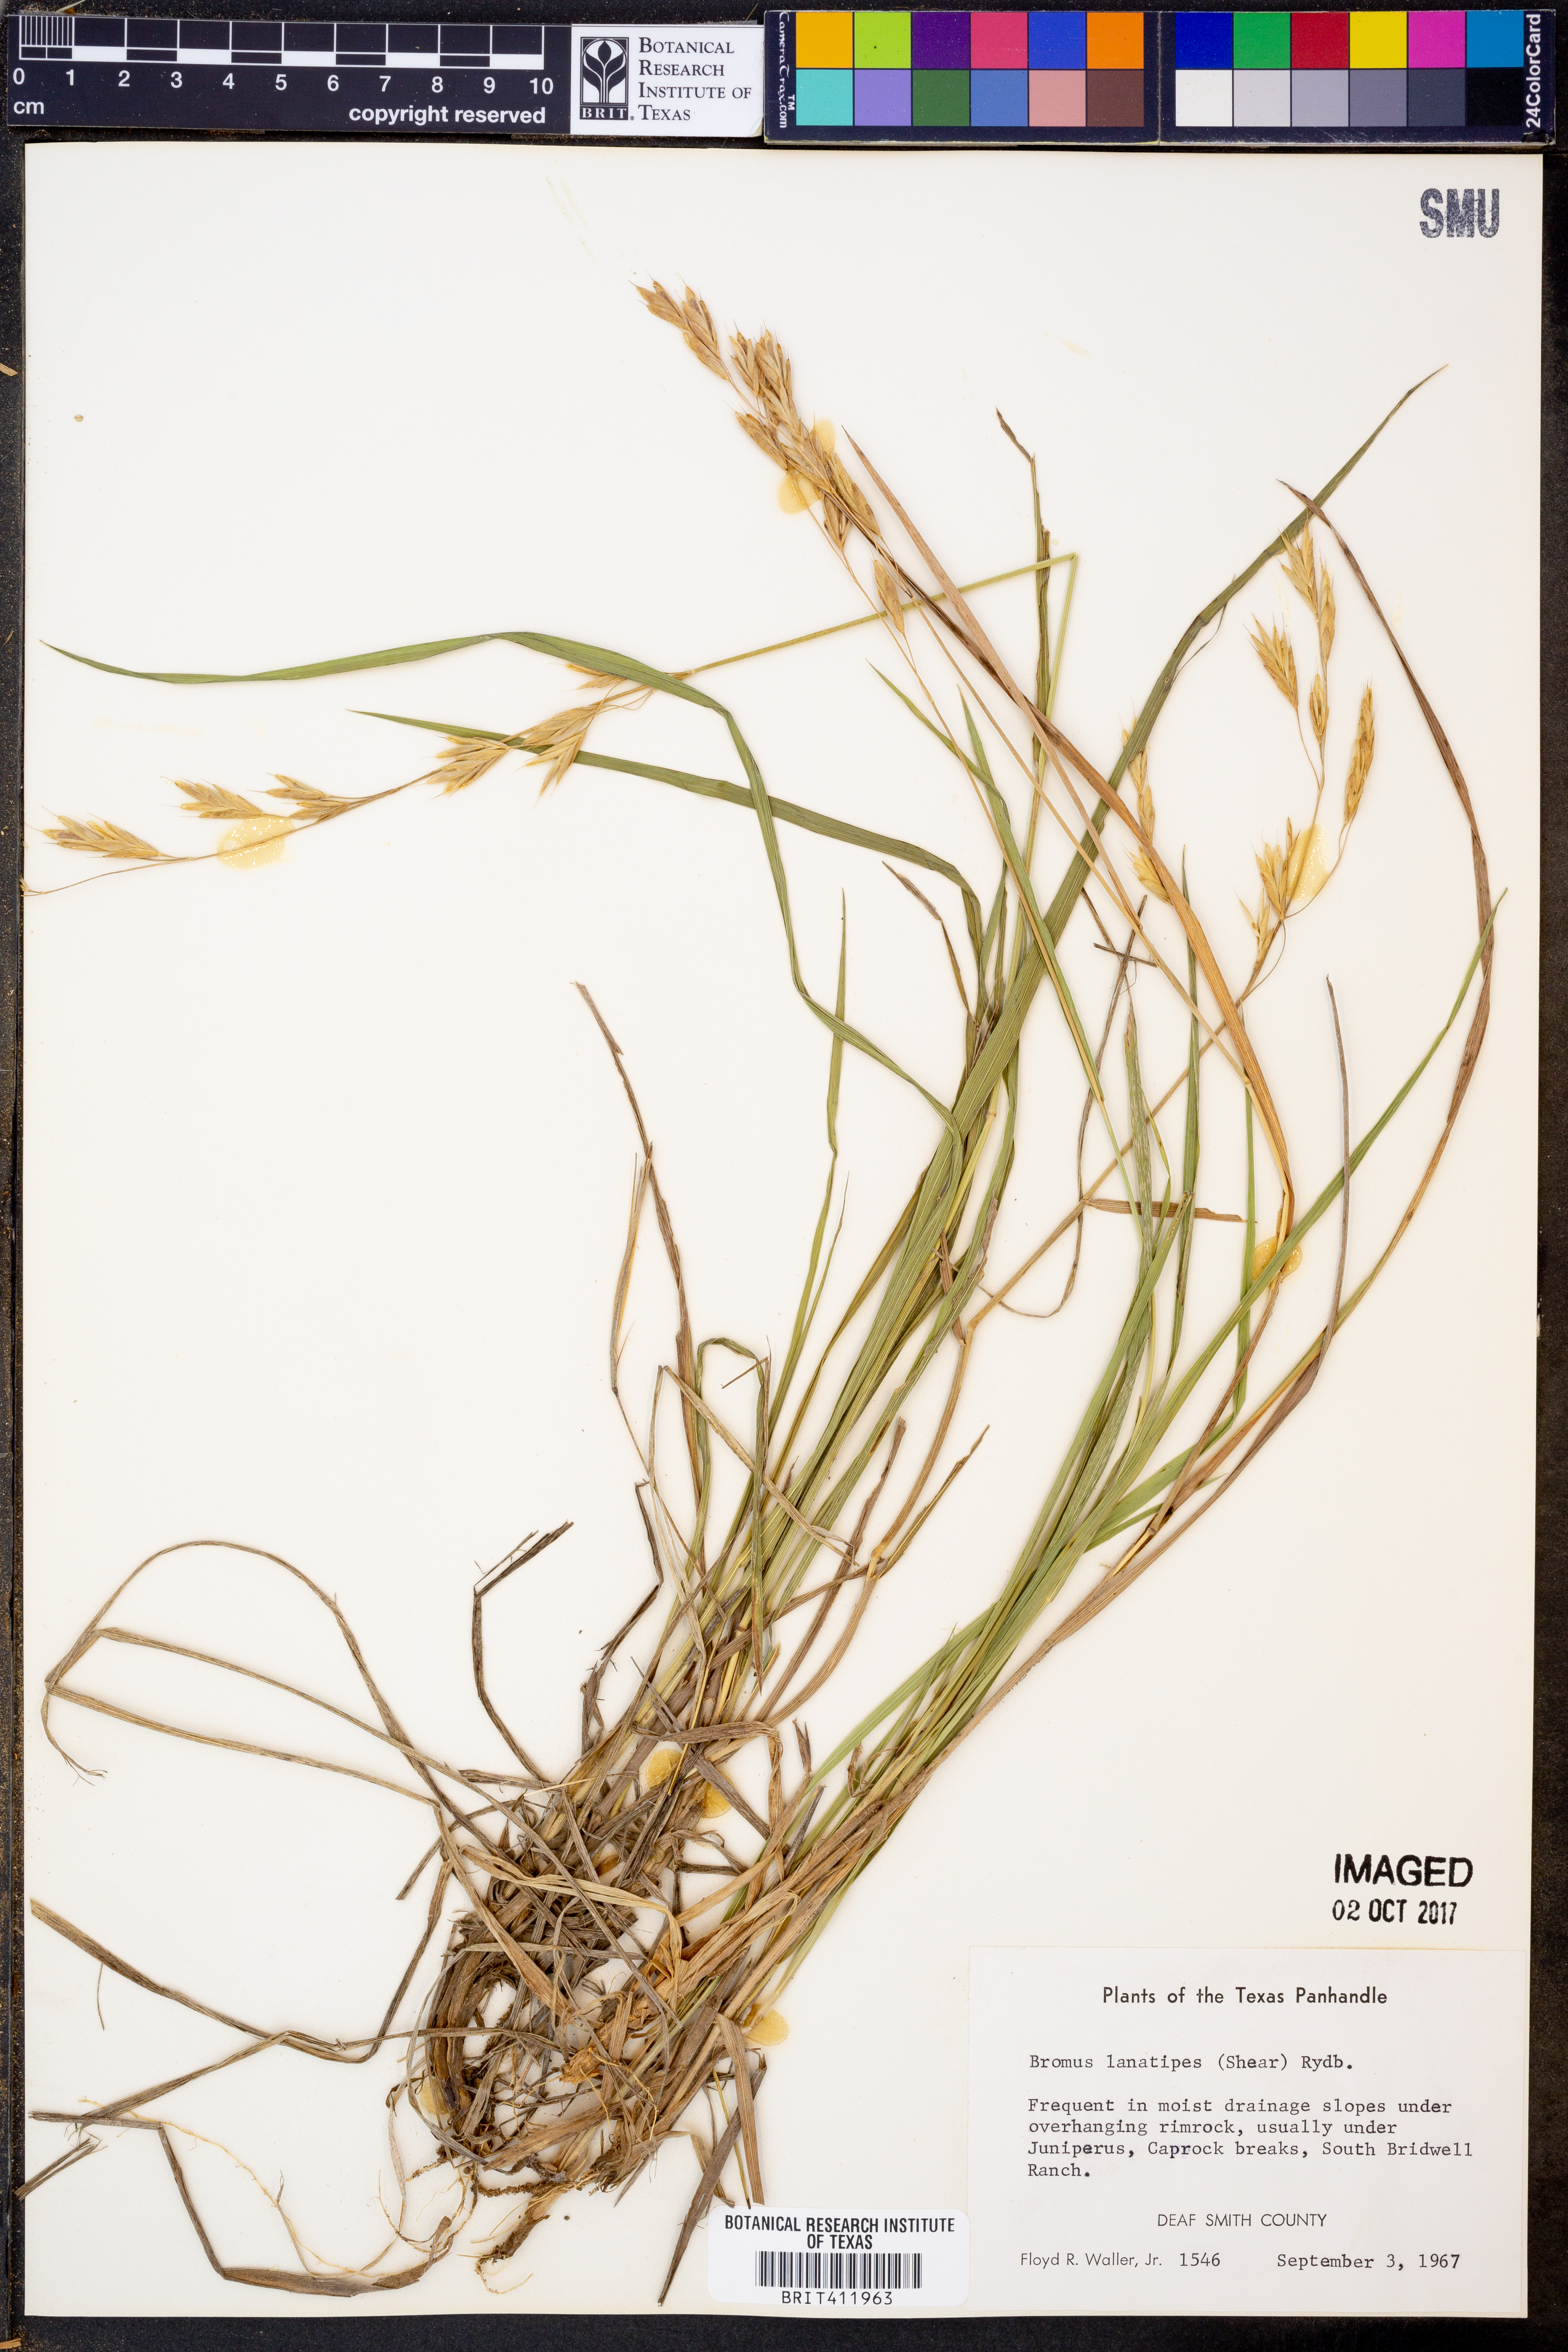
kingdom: Plantae
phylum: Tracheophyta
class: Liliopsida
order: Poales
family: Poaceae
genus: Bromus
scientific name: Bromus lanatipes
